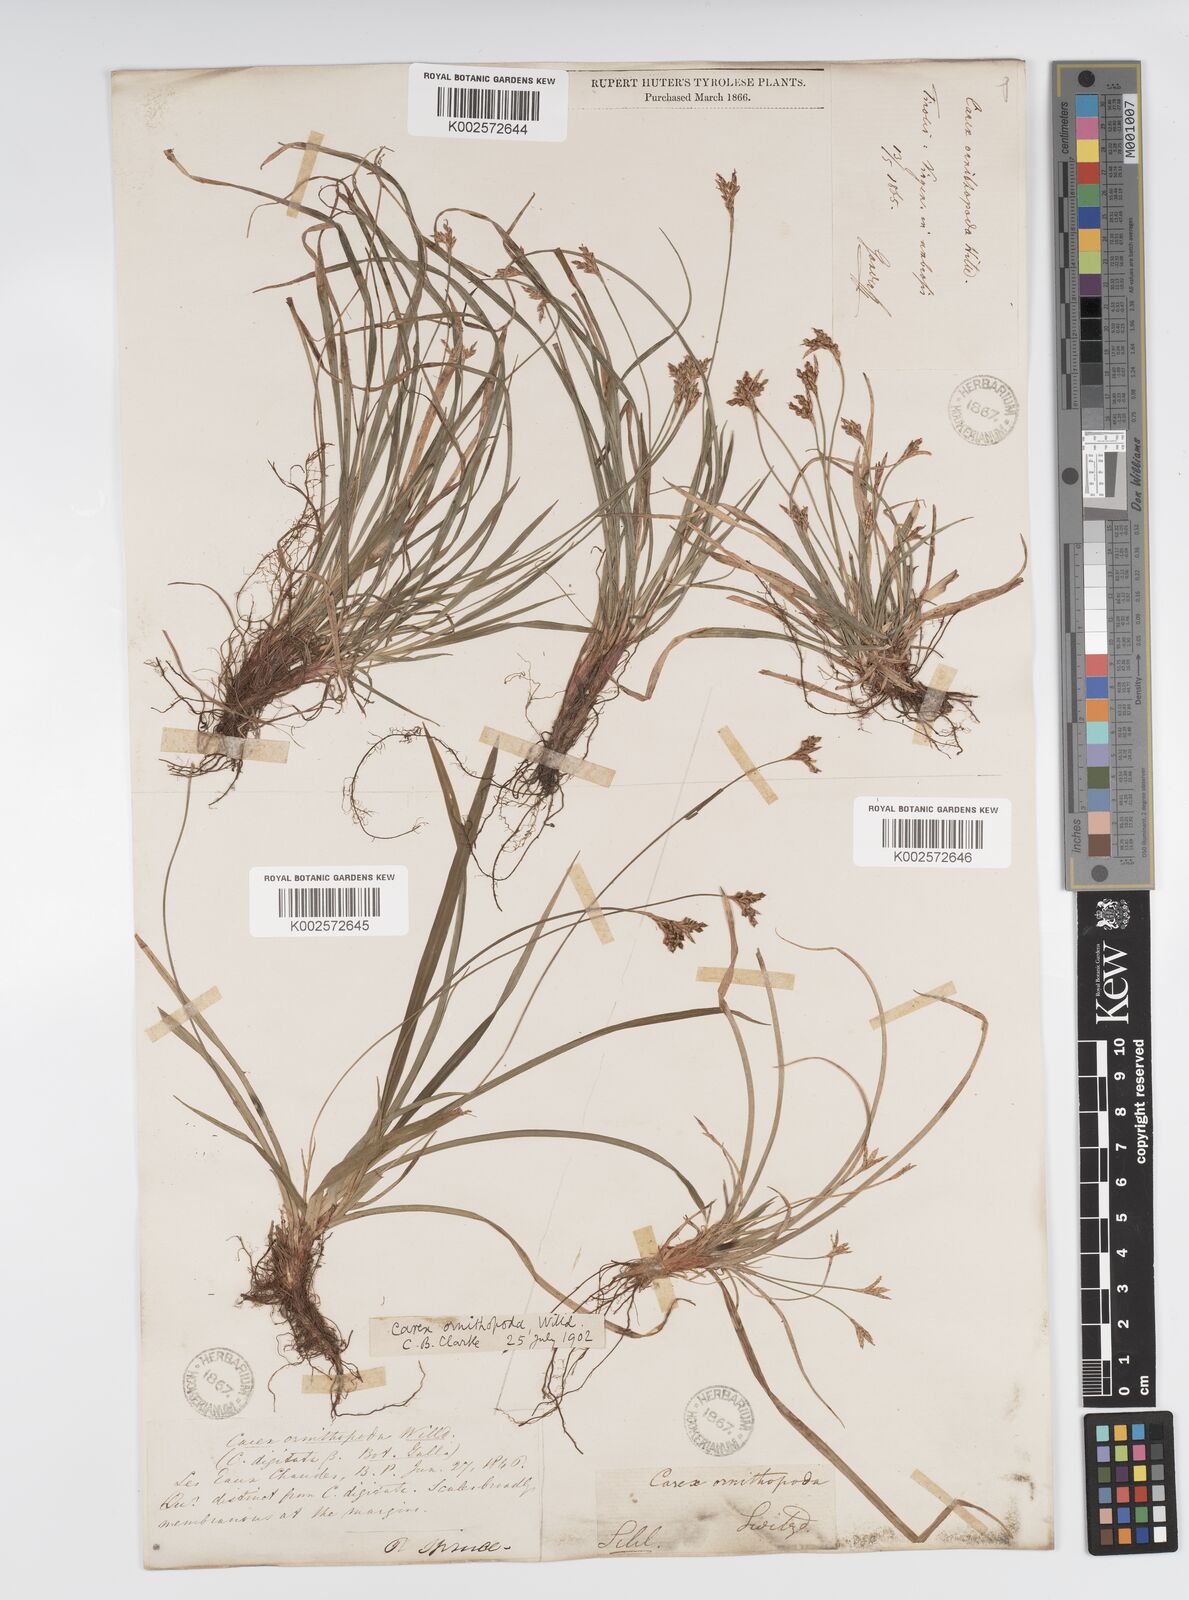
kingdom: Plantae
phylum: Tracheophyta
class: Liliopsida
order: Poales
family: Cyperaceae
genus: Carex
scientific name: Carex ornithopoda
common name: Bird's-foot sedge
